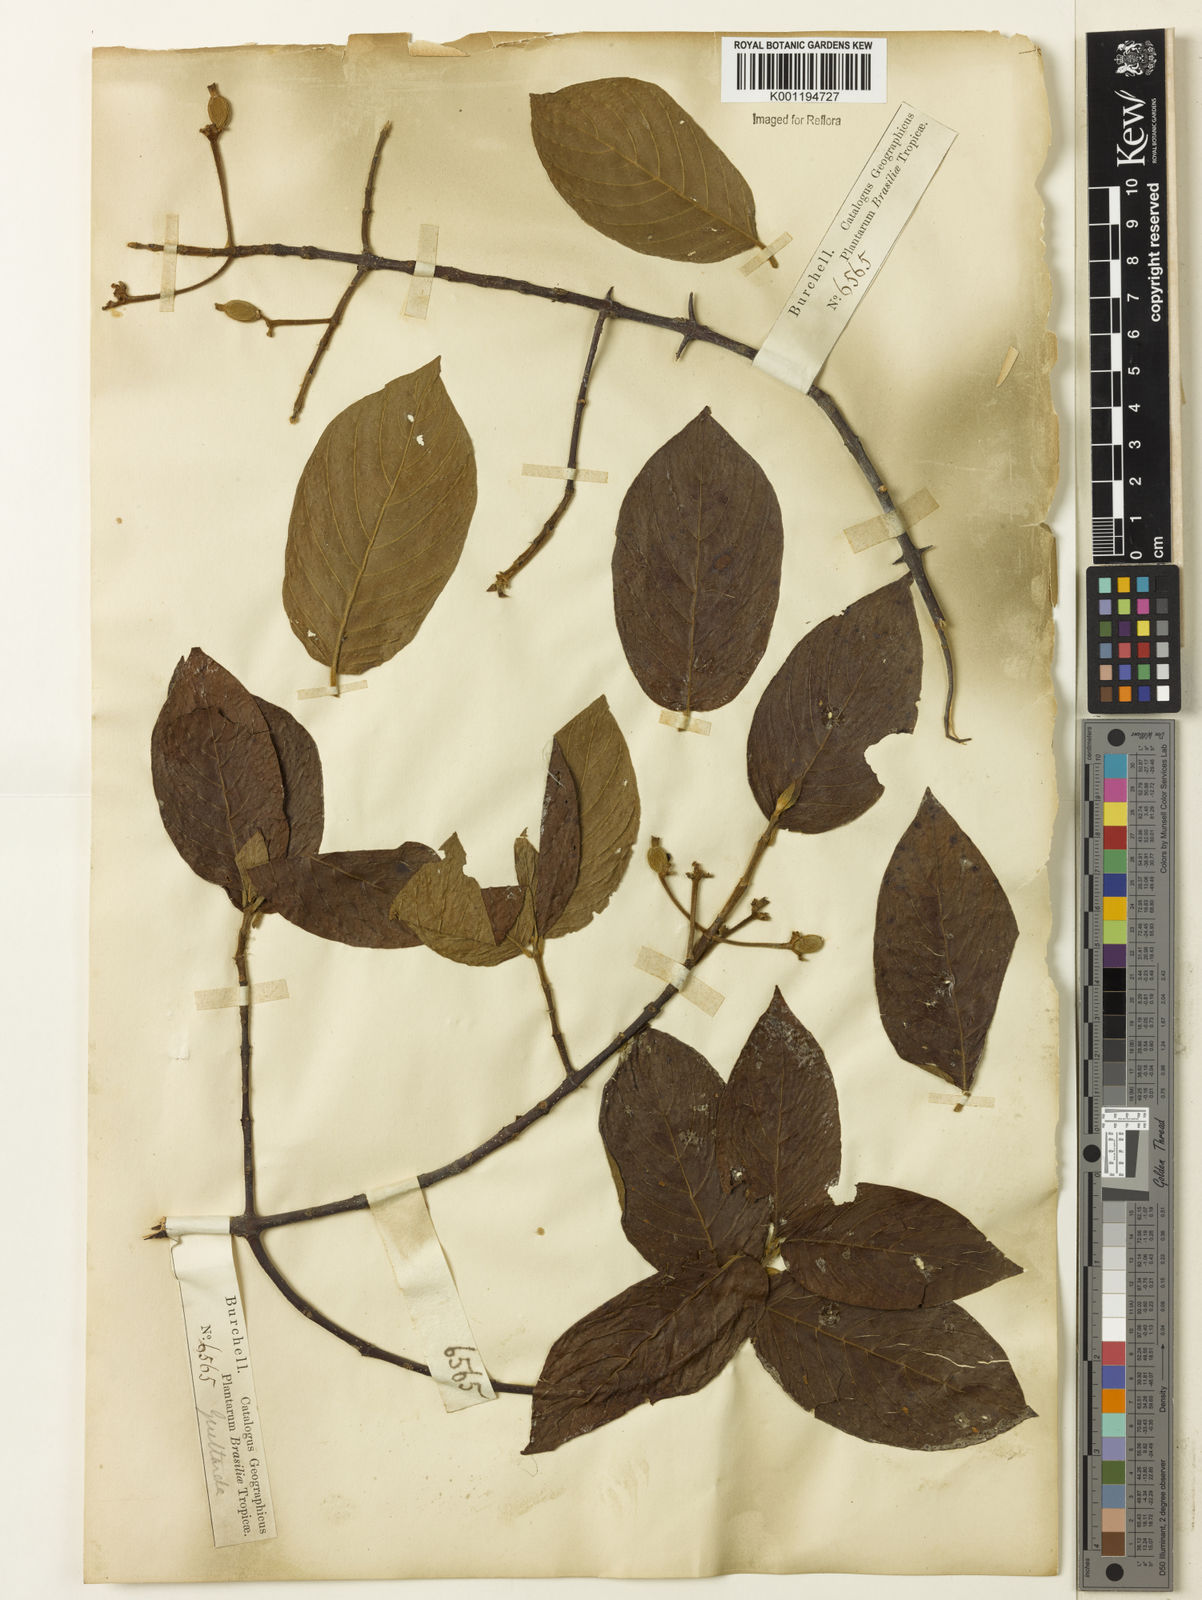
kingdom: Plantae
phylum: Tracheophyta
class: Magnoliopsida
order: Gentianales
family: Rubiaceae
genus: Guettarda
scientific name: Guettarda mattogrossensis
